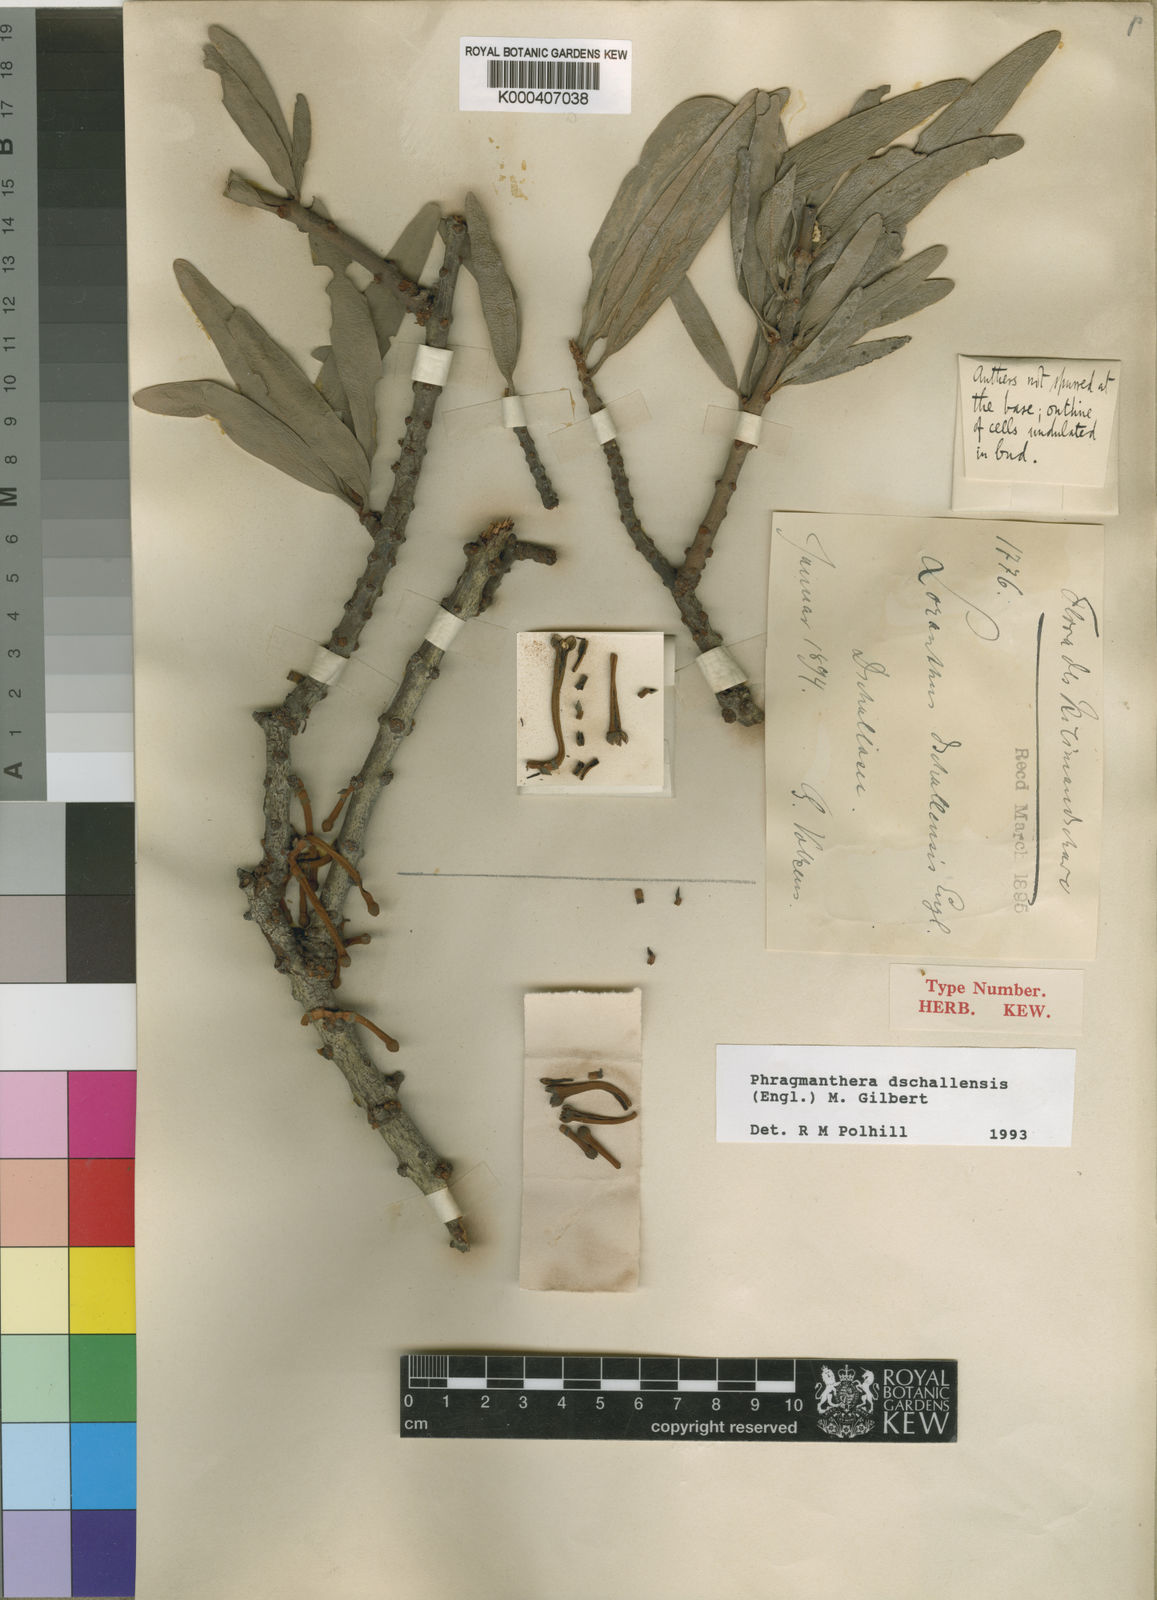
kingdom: Plantae
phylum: Tracheophyta
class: Magnoliopsida
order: Santalales
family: Loranthaceae
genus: Phragmanthera
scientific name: Phragmanthera dschallensis
